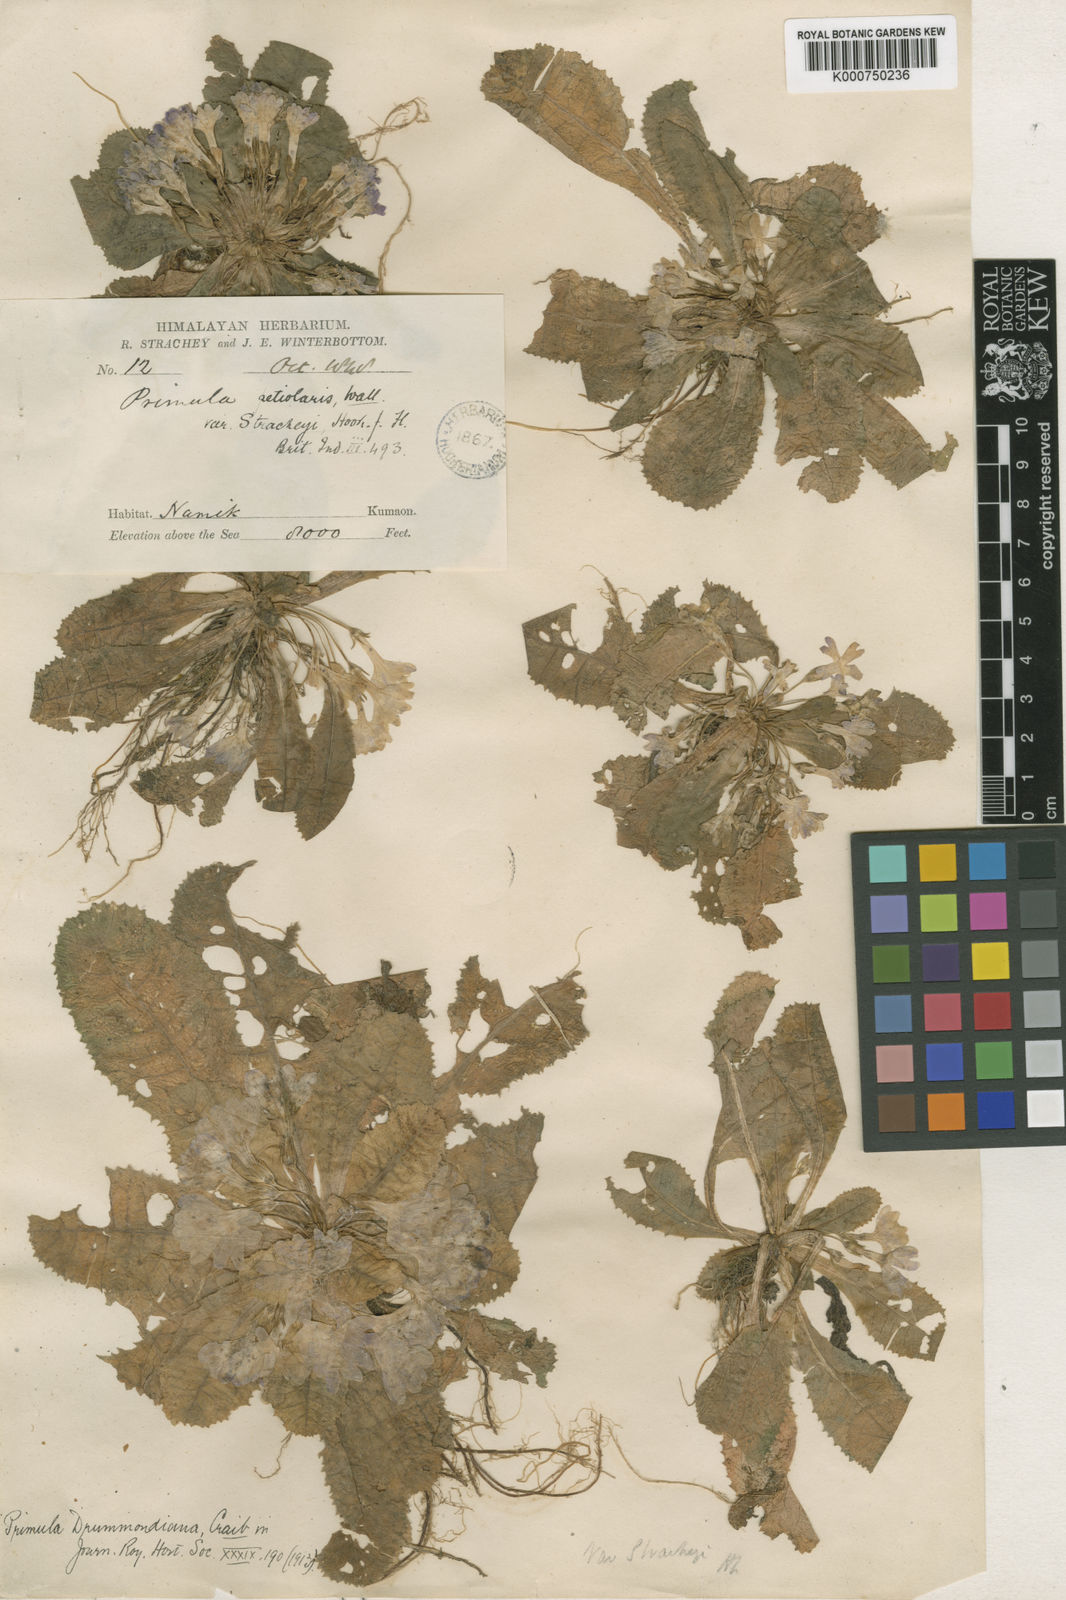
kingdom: Plantae
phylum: Tracheophyta
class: Magnoliopsida
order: Ericales
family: Primulaceae
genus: Primula
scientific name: Primula drummondiana
